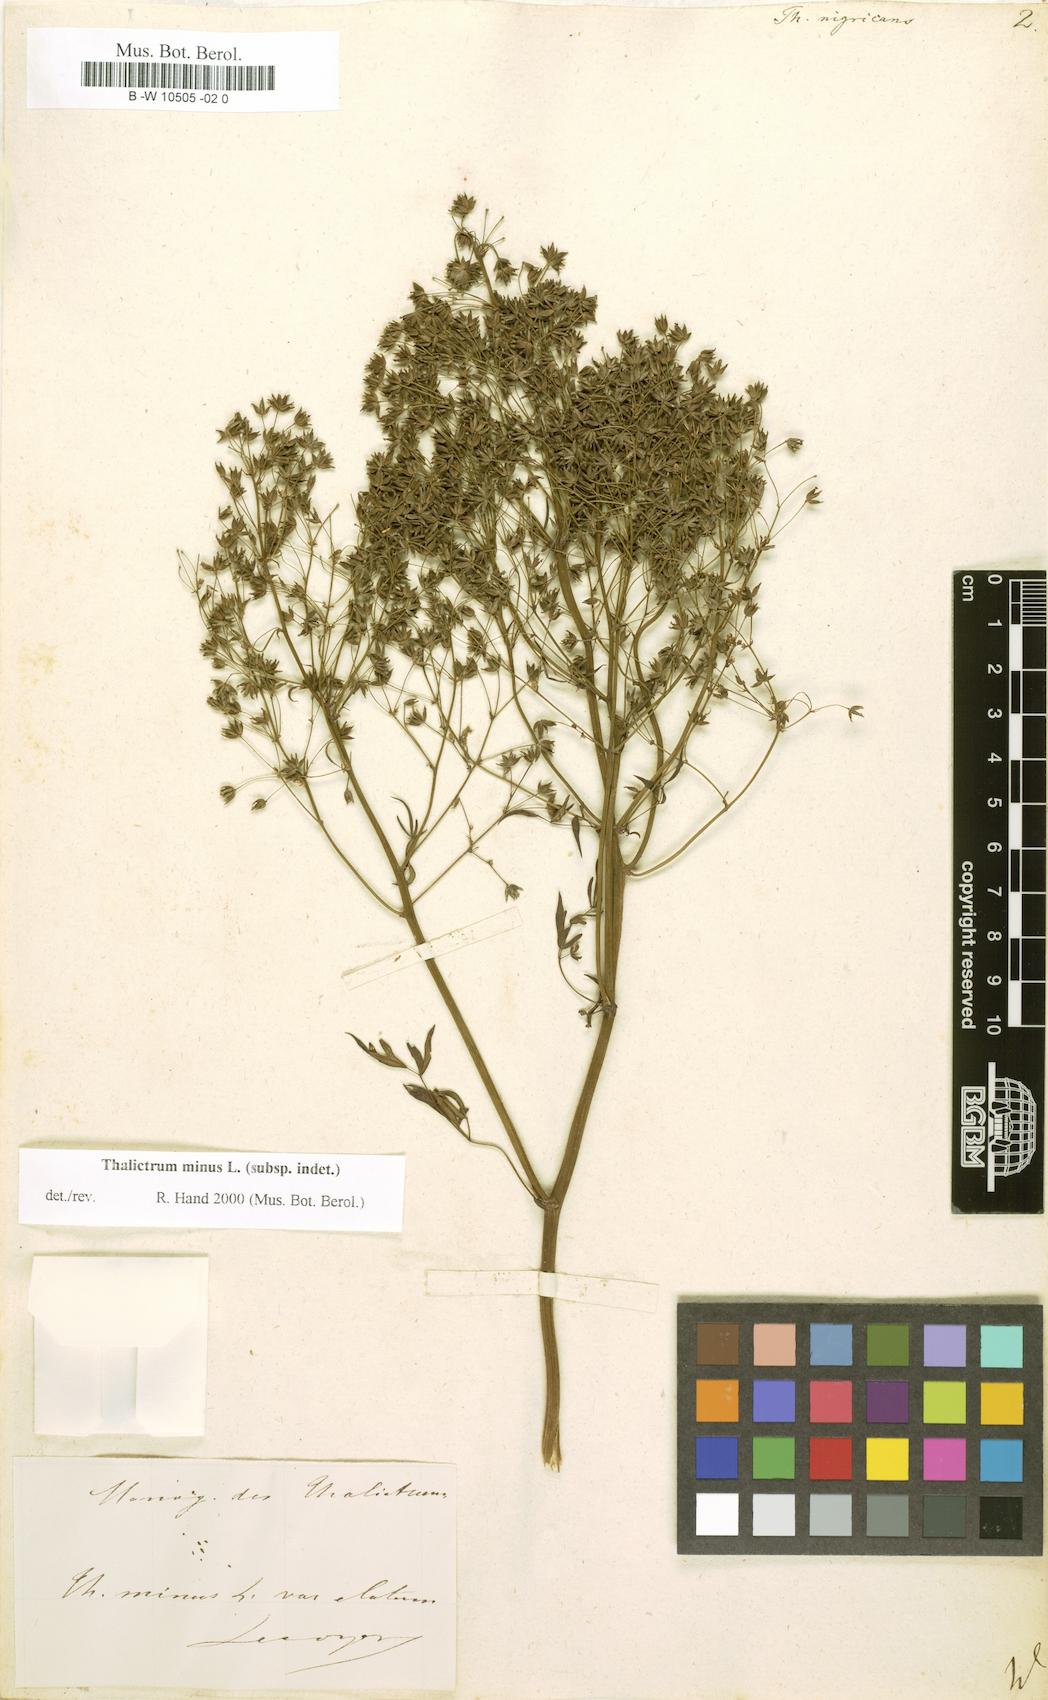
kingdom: Plantae
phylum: Tracheophyta
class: Magnoliopsida
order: Ranunculales
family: Ranunculaceae
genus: Thalictrum
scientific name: Thalictrum
